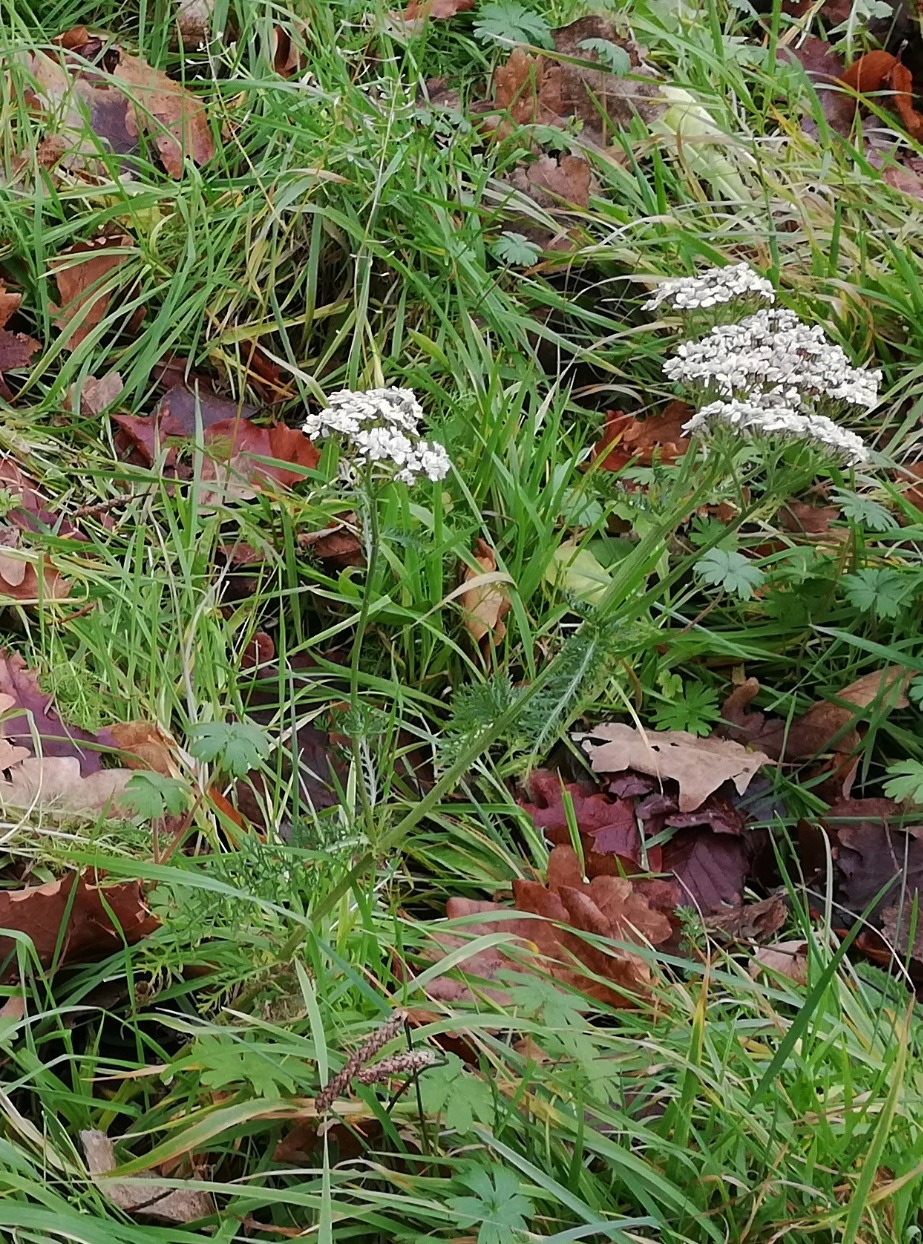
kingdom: Plantae
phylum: Tracheophyta
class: Magnoliopsida
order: Asterales
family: Asteraceae
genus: Achillea
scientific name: Achillea millefolium
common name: Almindelig røllike
